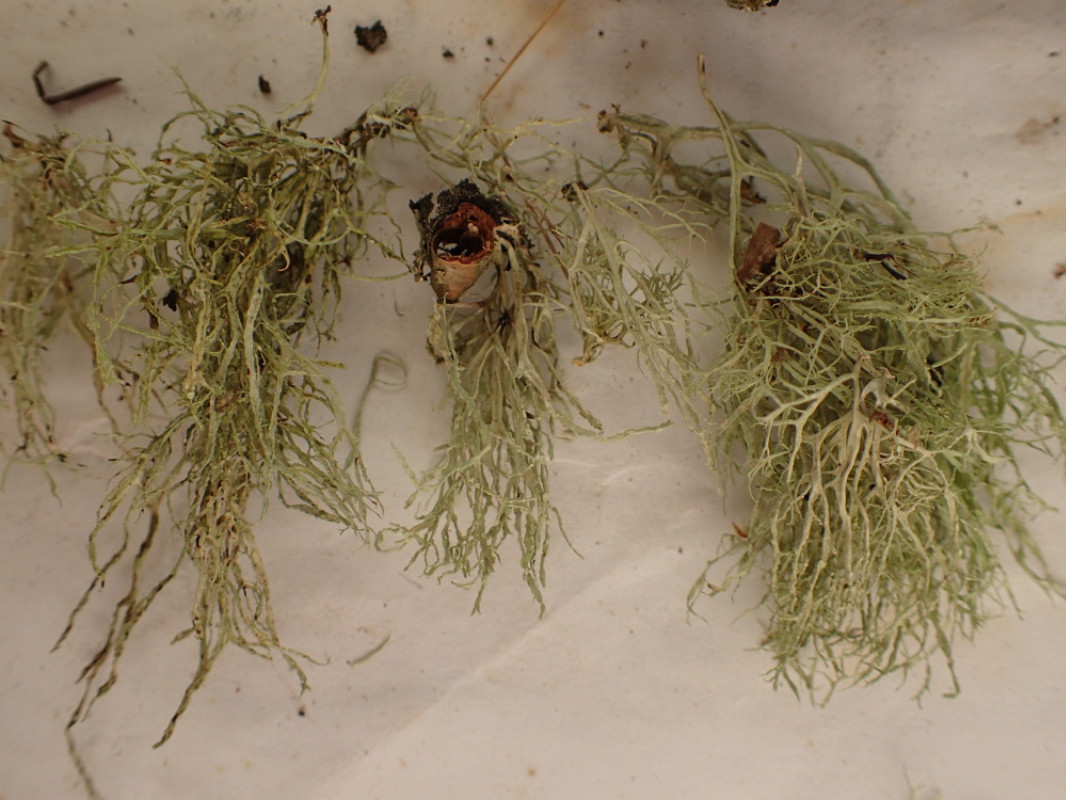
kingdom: Fungi
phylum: Ascomycota
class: Lecanoromycetes
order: Lecanorales
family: Ramalinaceae
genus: Ramalina
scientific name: Ramalina farinacea
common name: melet grenlav
